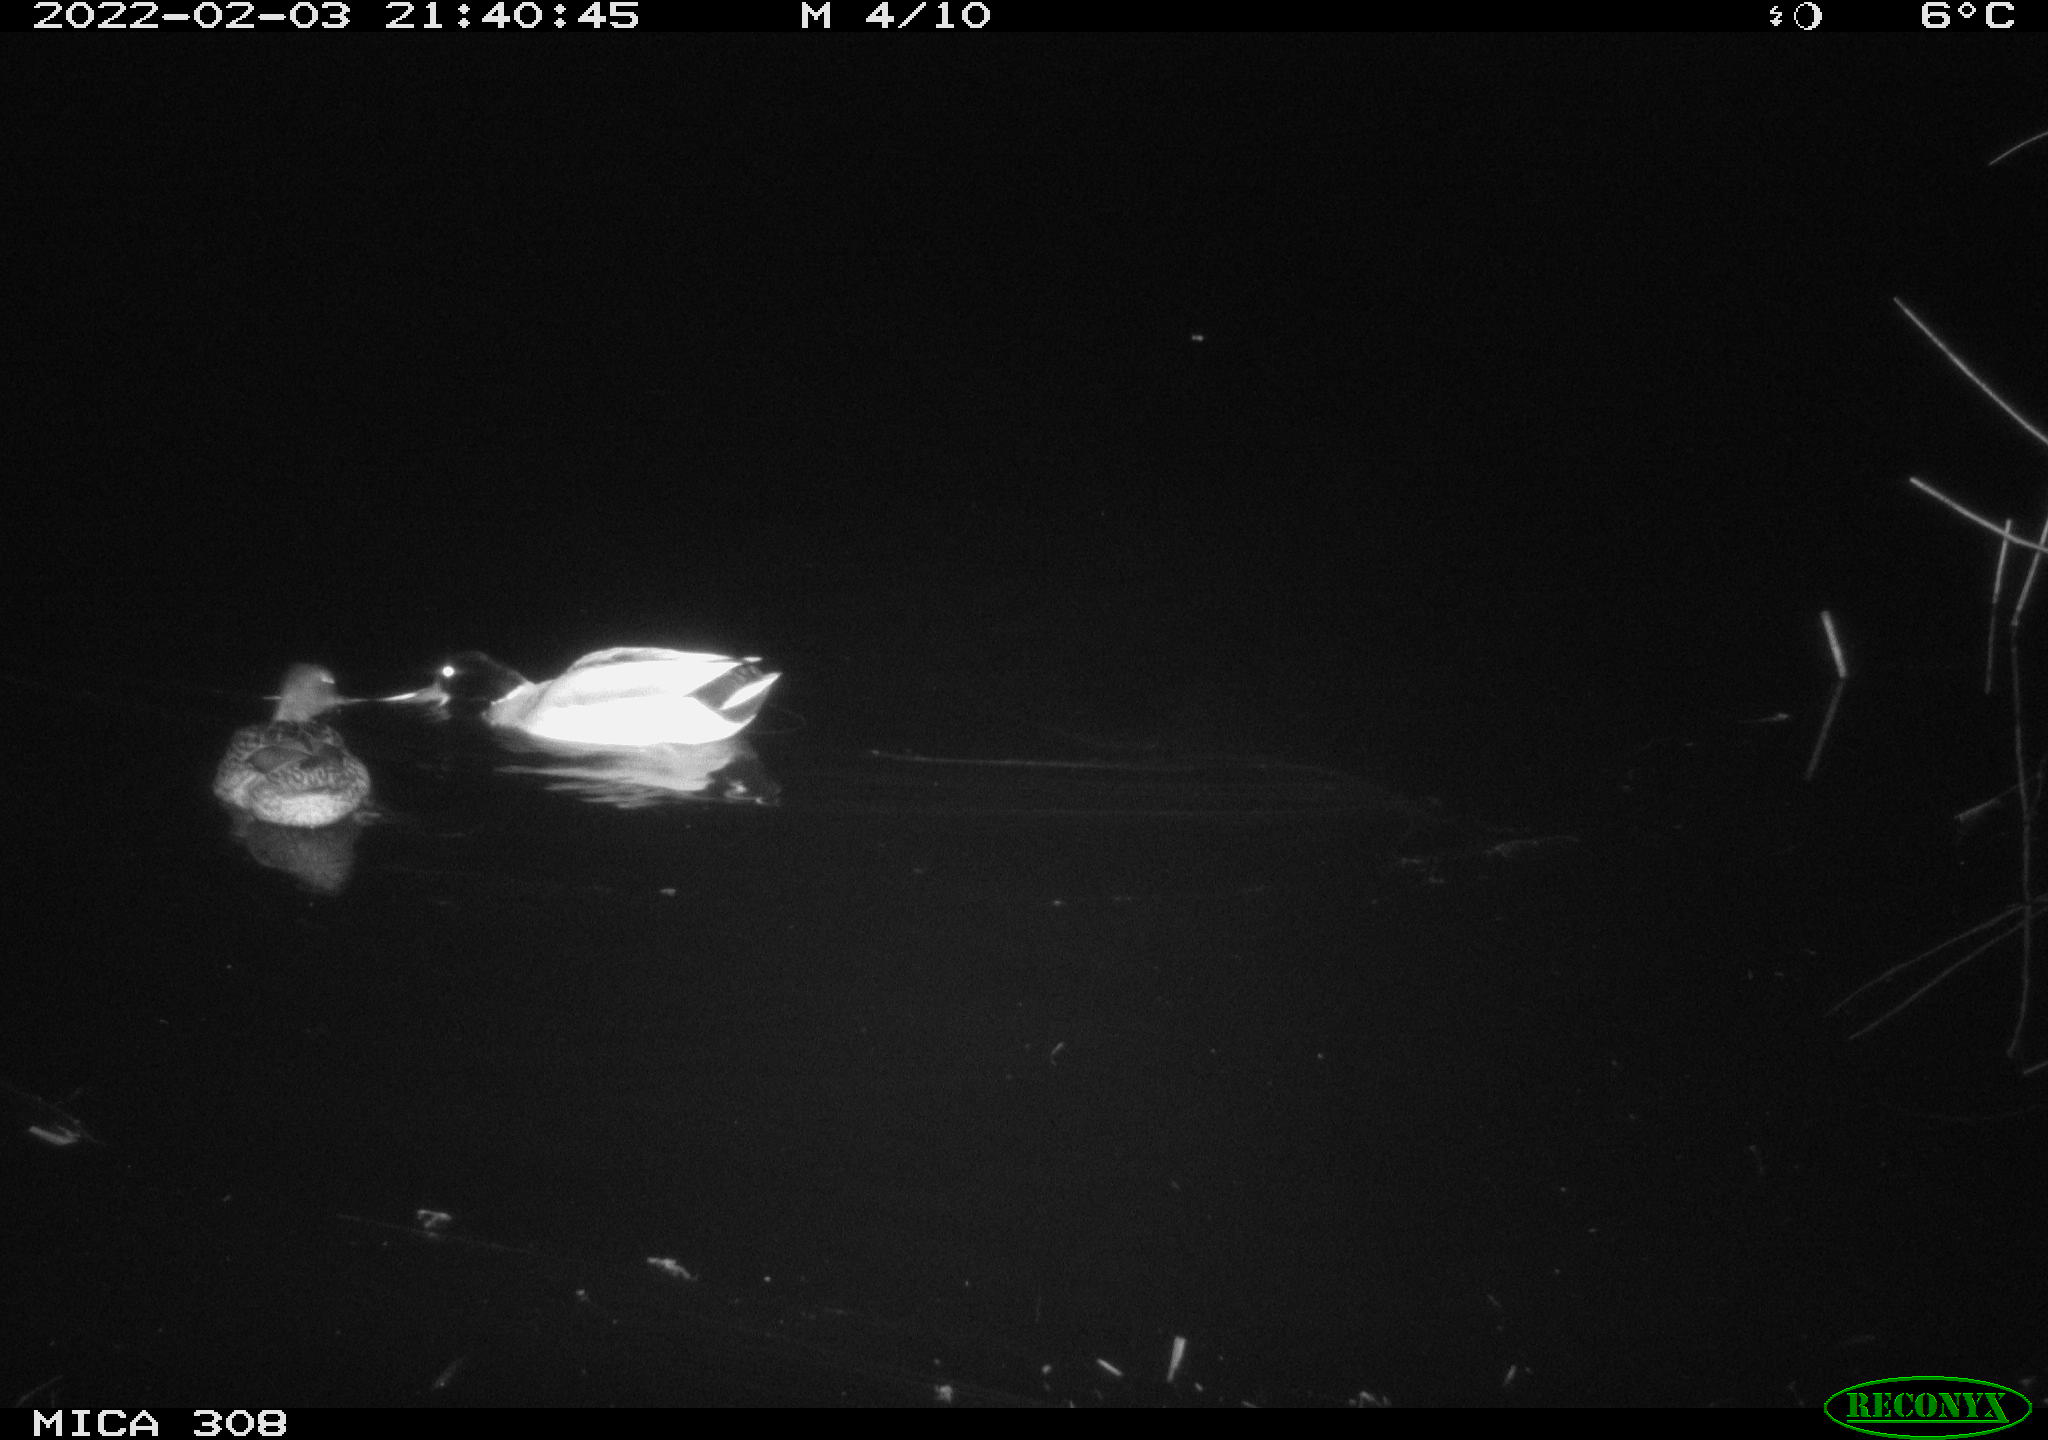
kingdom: Animalia
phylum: Chordata
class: Aves
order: Anseriformes
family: Anatidae
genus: Anas
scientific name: Anas platyrhynchos
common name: Mallard
